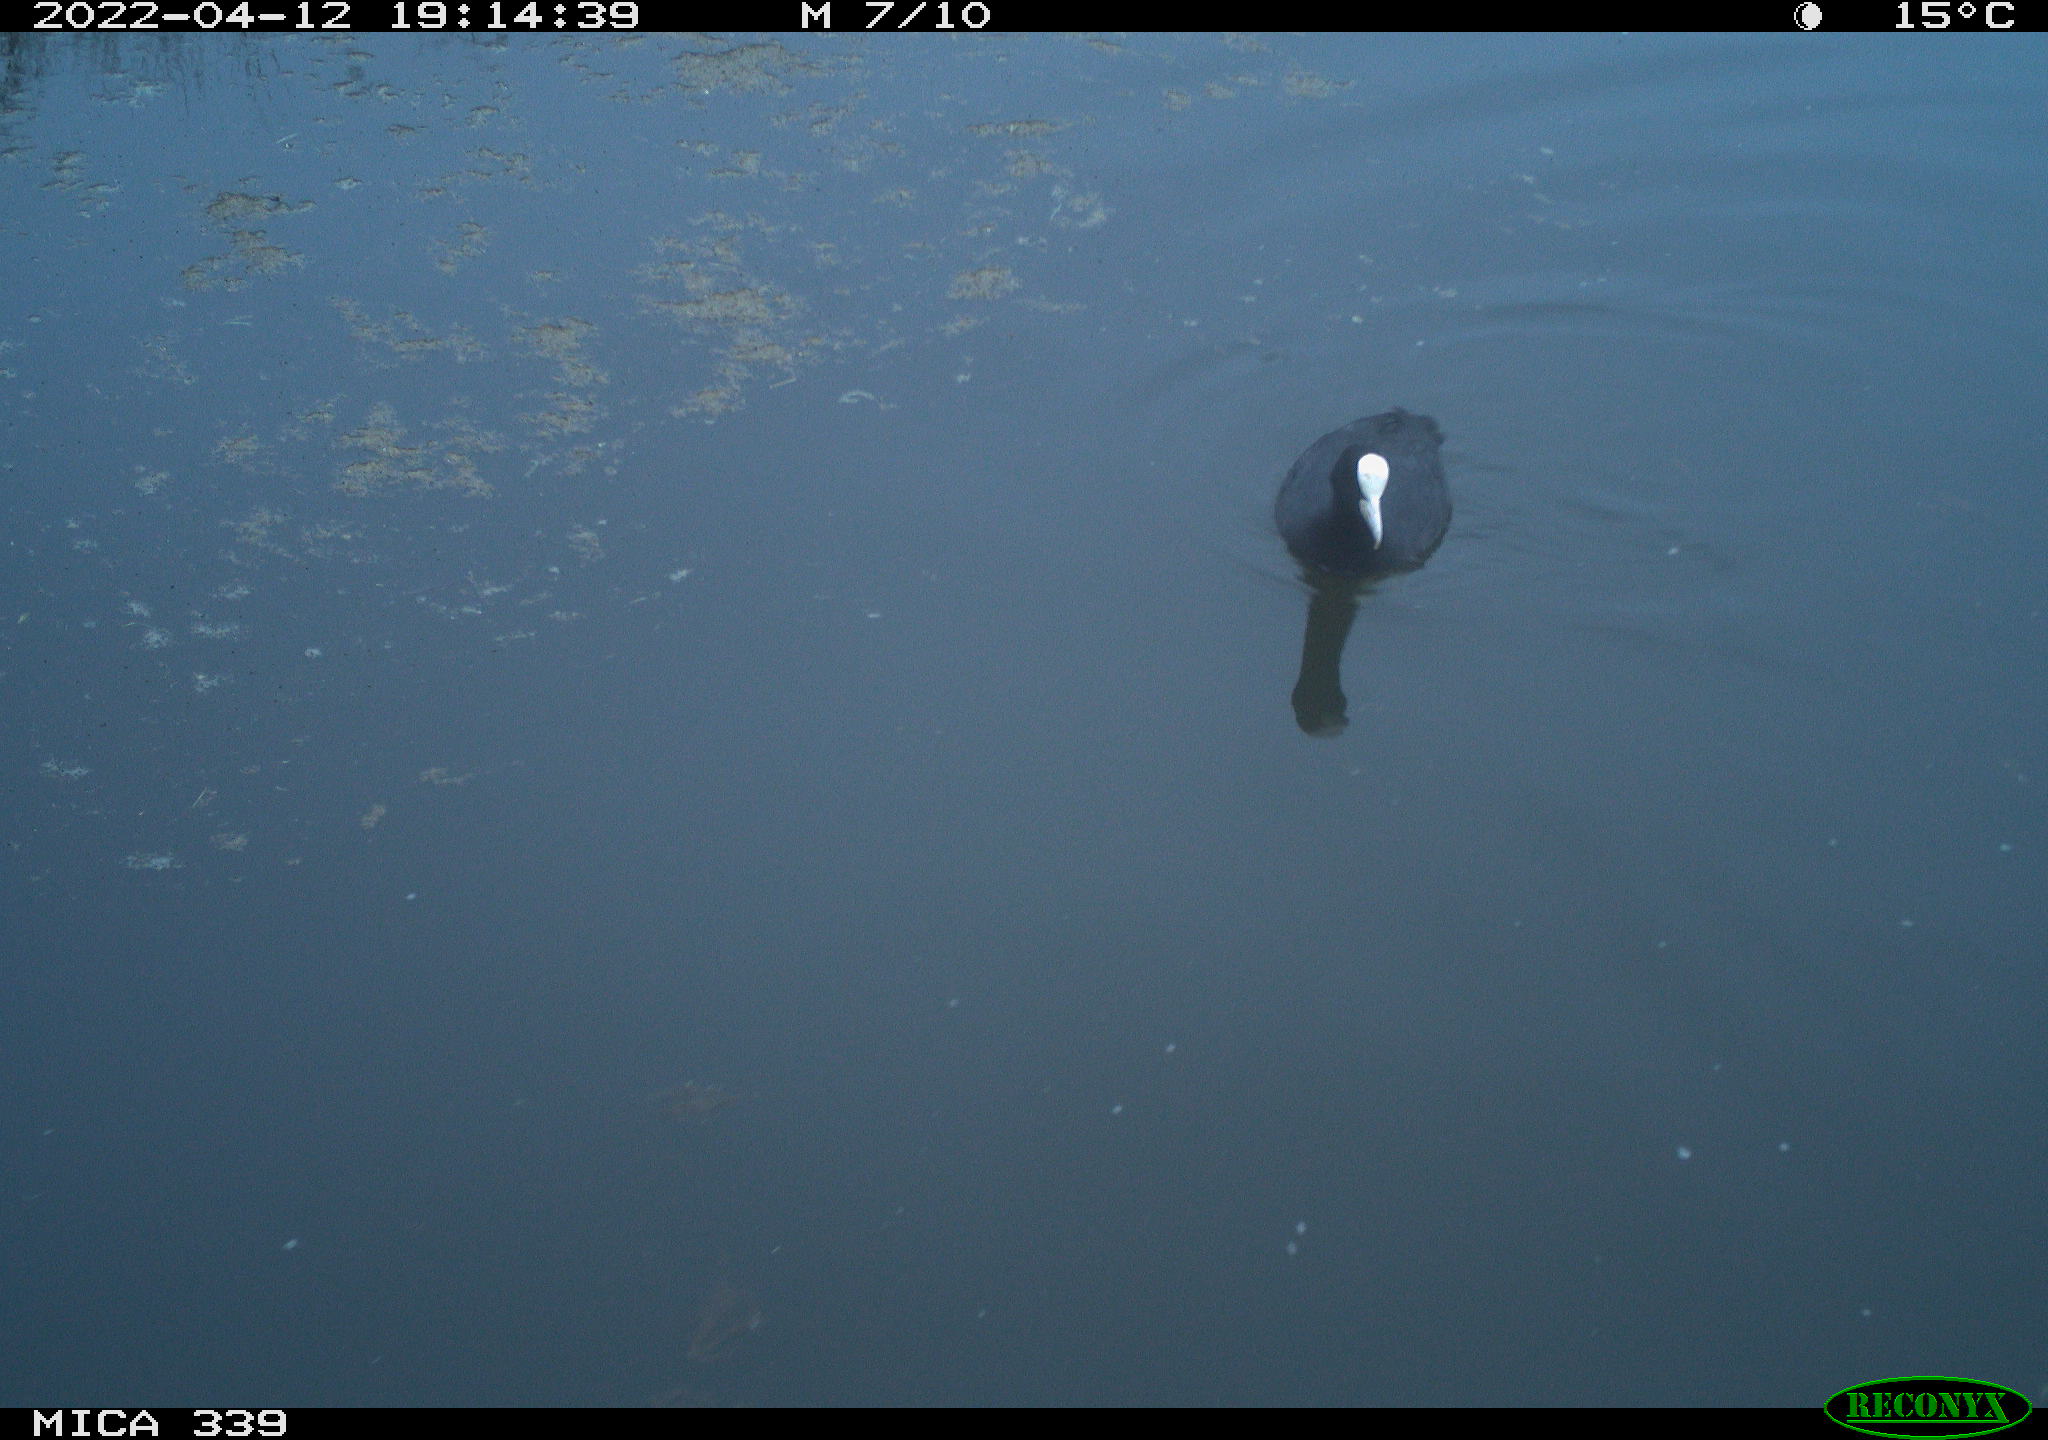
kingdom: Animalia
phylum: Chordata
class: Aves
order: Gruiformes
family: Rallidae
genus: Fulica
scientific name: Fulica atra
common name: Eurasian coot
